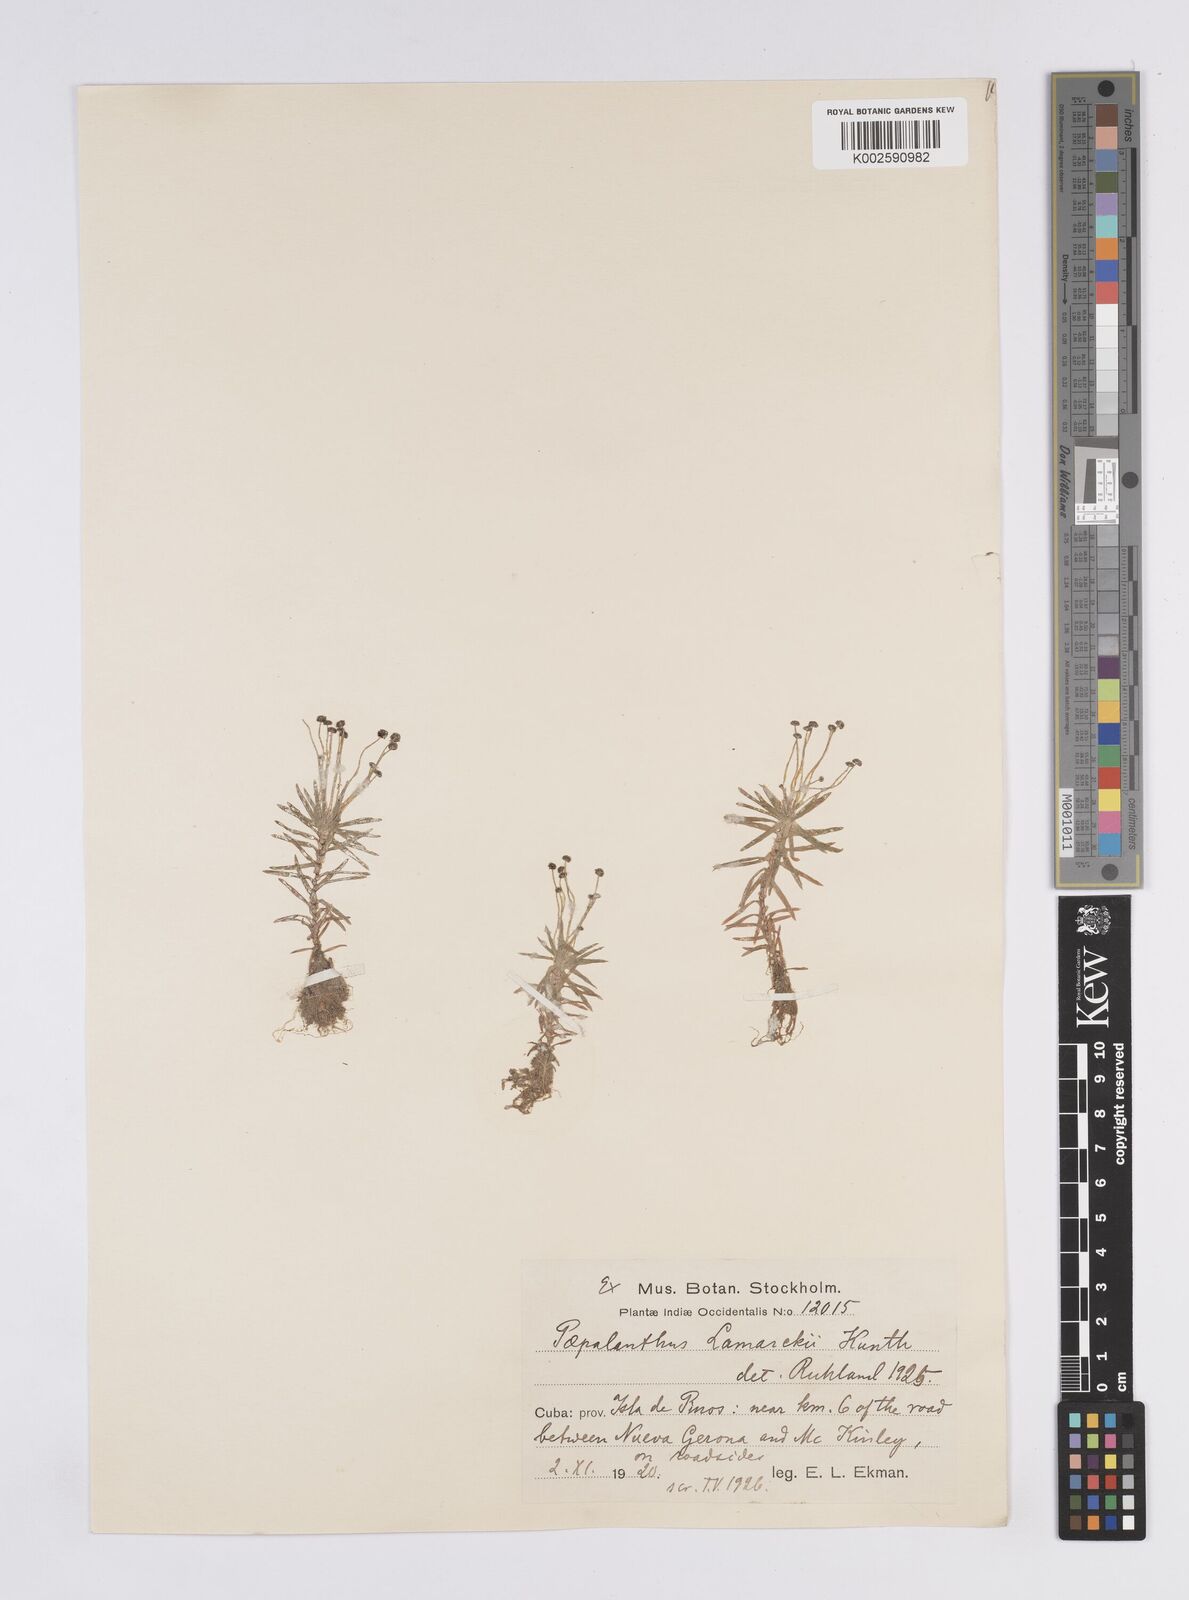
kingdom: Plantae
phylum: Tracheophyta
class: Liliopsida
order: Poales
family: Eriocaulaceae
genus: Paepalanthus
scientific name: Paepalanthus lamarckii
